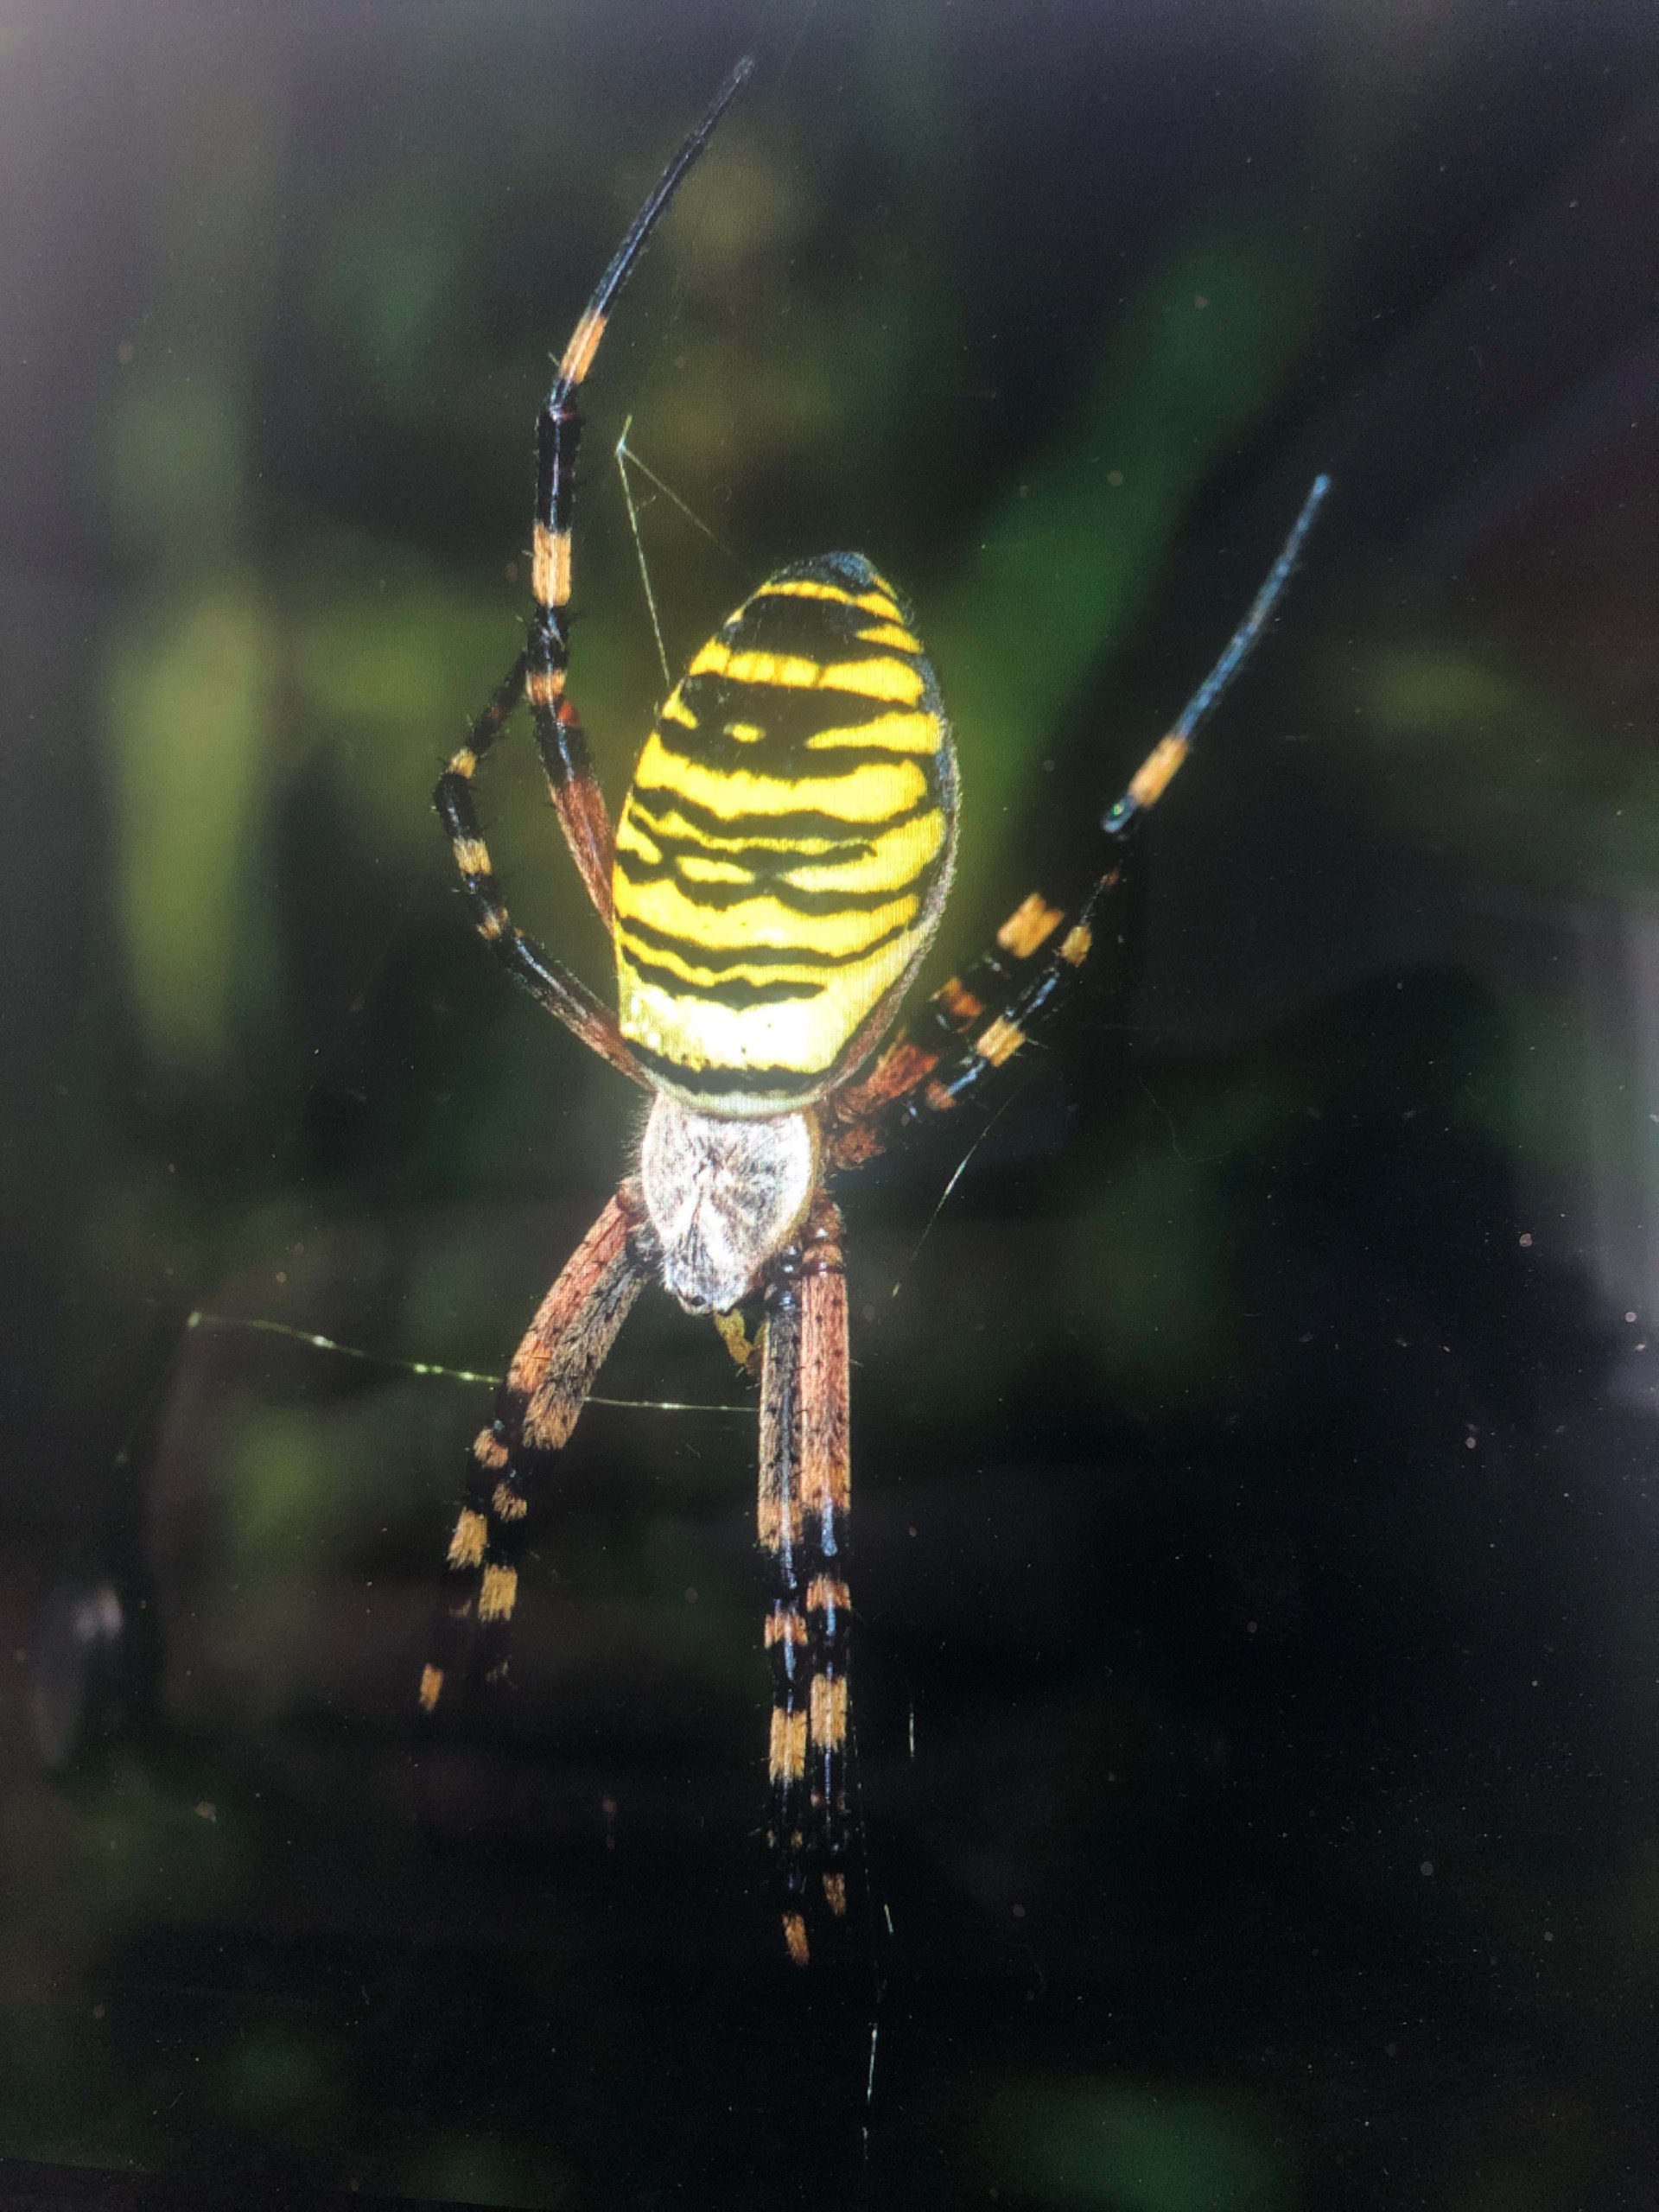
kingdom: Animalia
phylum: Arthropoda
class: Arachnida
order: Araneae
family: Araneidae
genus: Argiope
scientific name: Argiope bruennichi
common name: Hvepseedderkop
